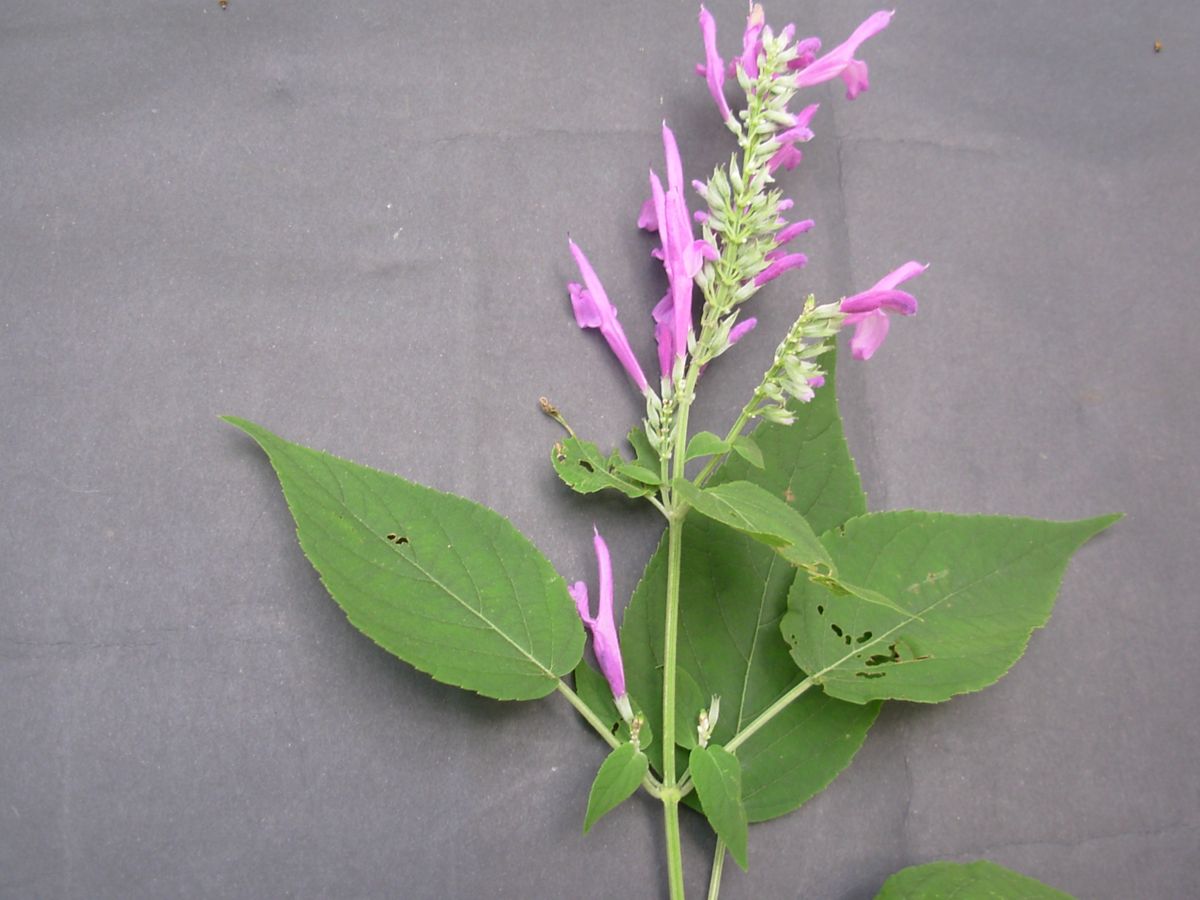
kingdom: Plantae
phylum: Tracheophyta
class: Magnoliopsida
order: Lamiales
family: Lamiaceae
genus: Salvia
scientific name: Salvia purpurea
